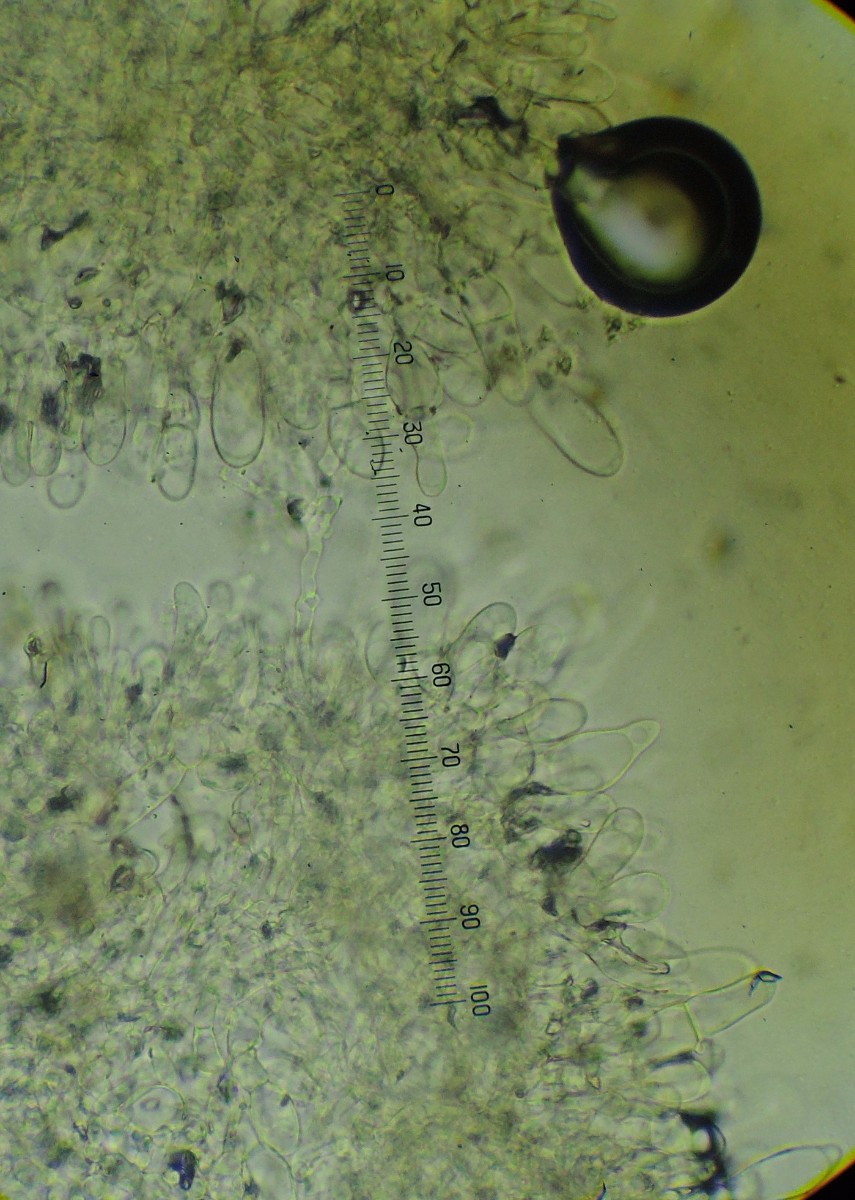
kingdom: Fungi
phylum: Basidiomycota
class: Agaricomycetes
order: Agaricales
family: Inocybaceae
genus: Inocybe
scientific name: Inocybe dulcamara
